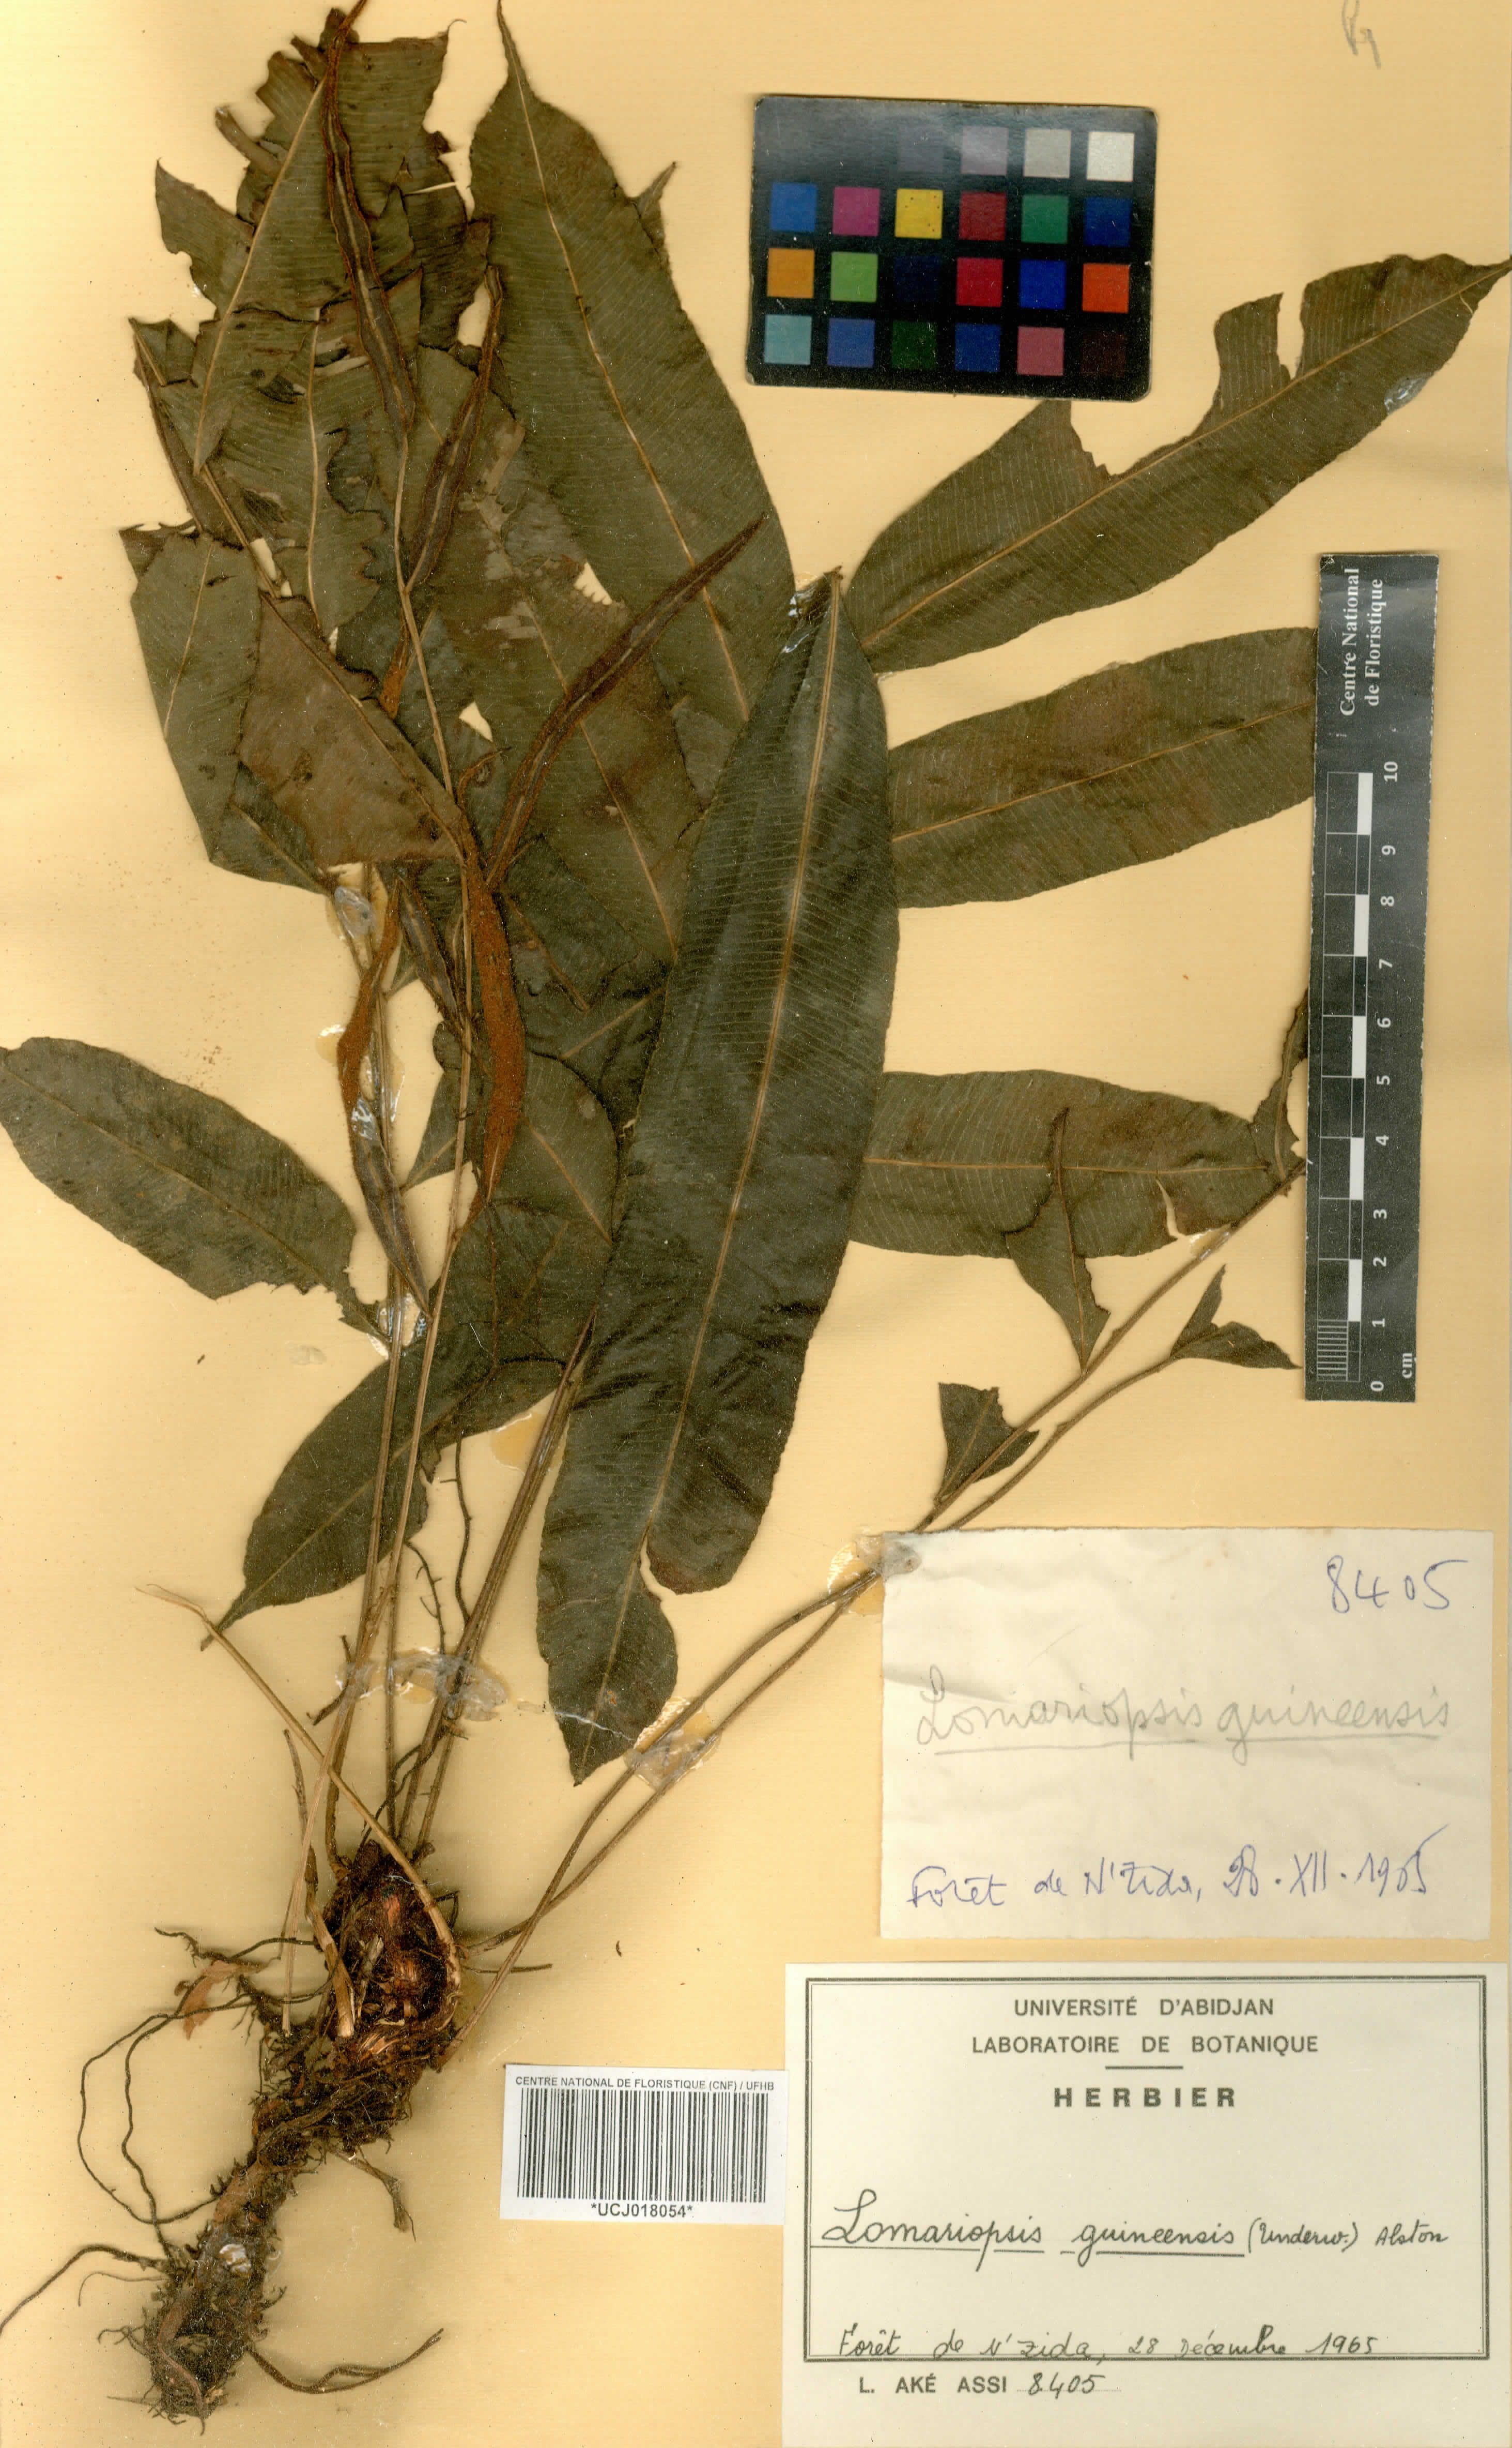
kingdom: Plantae
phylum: Tracheophyta
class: Polypodiopsida
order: Polypodiales
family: Lomariopsidaceae
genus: Lomariopsis
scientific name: Lomariopsis guineensis
